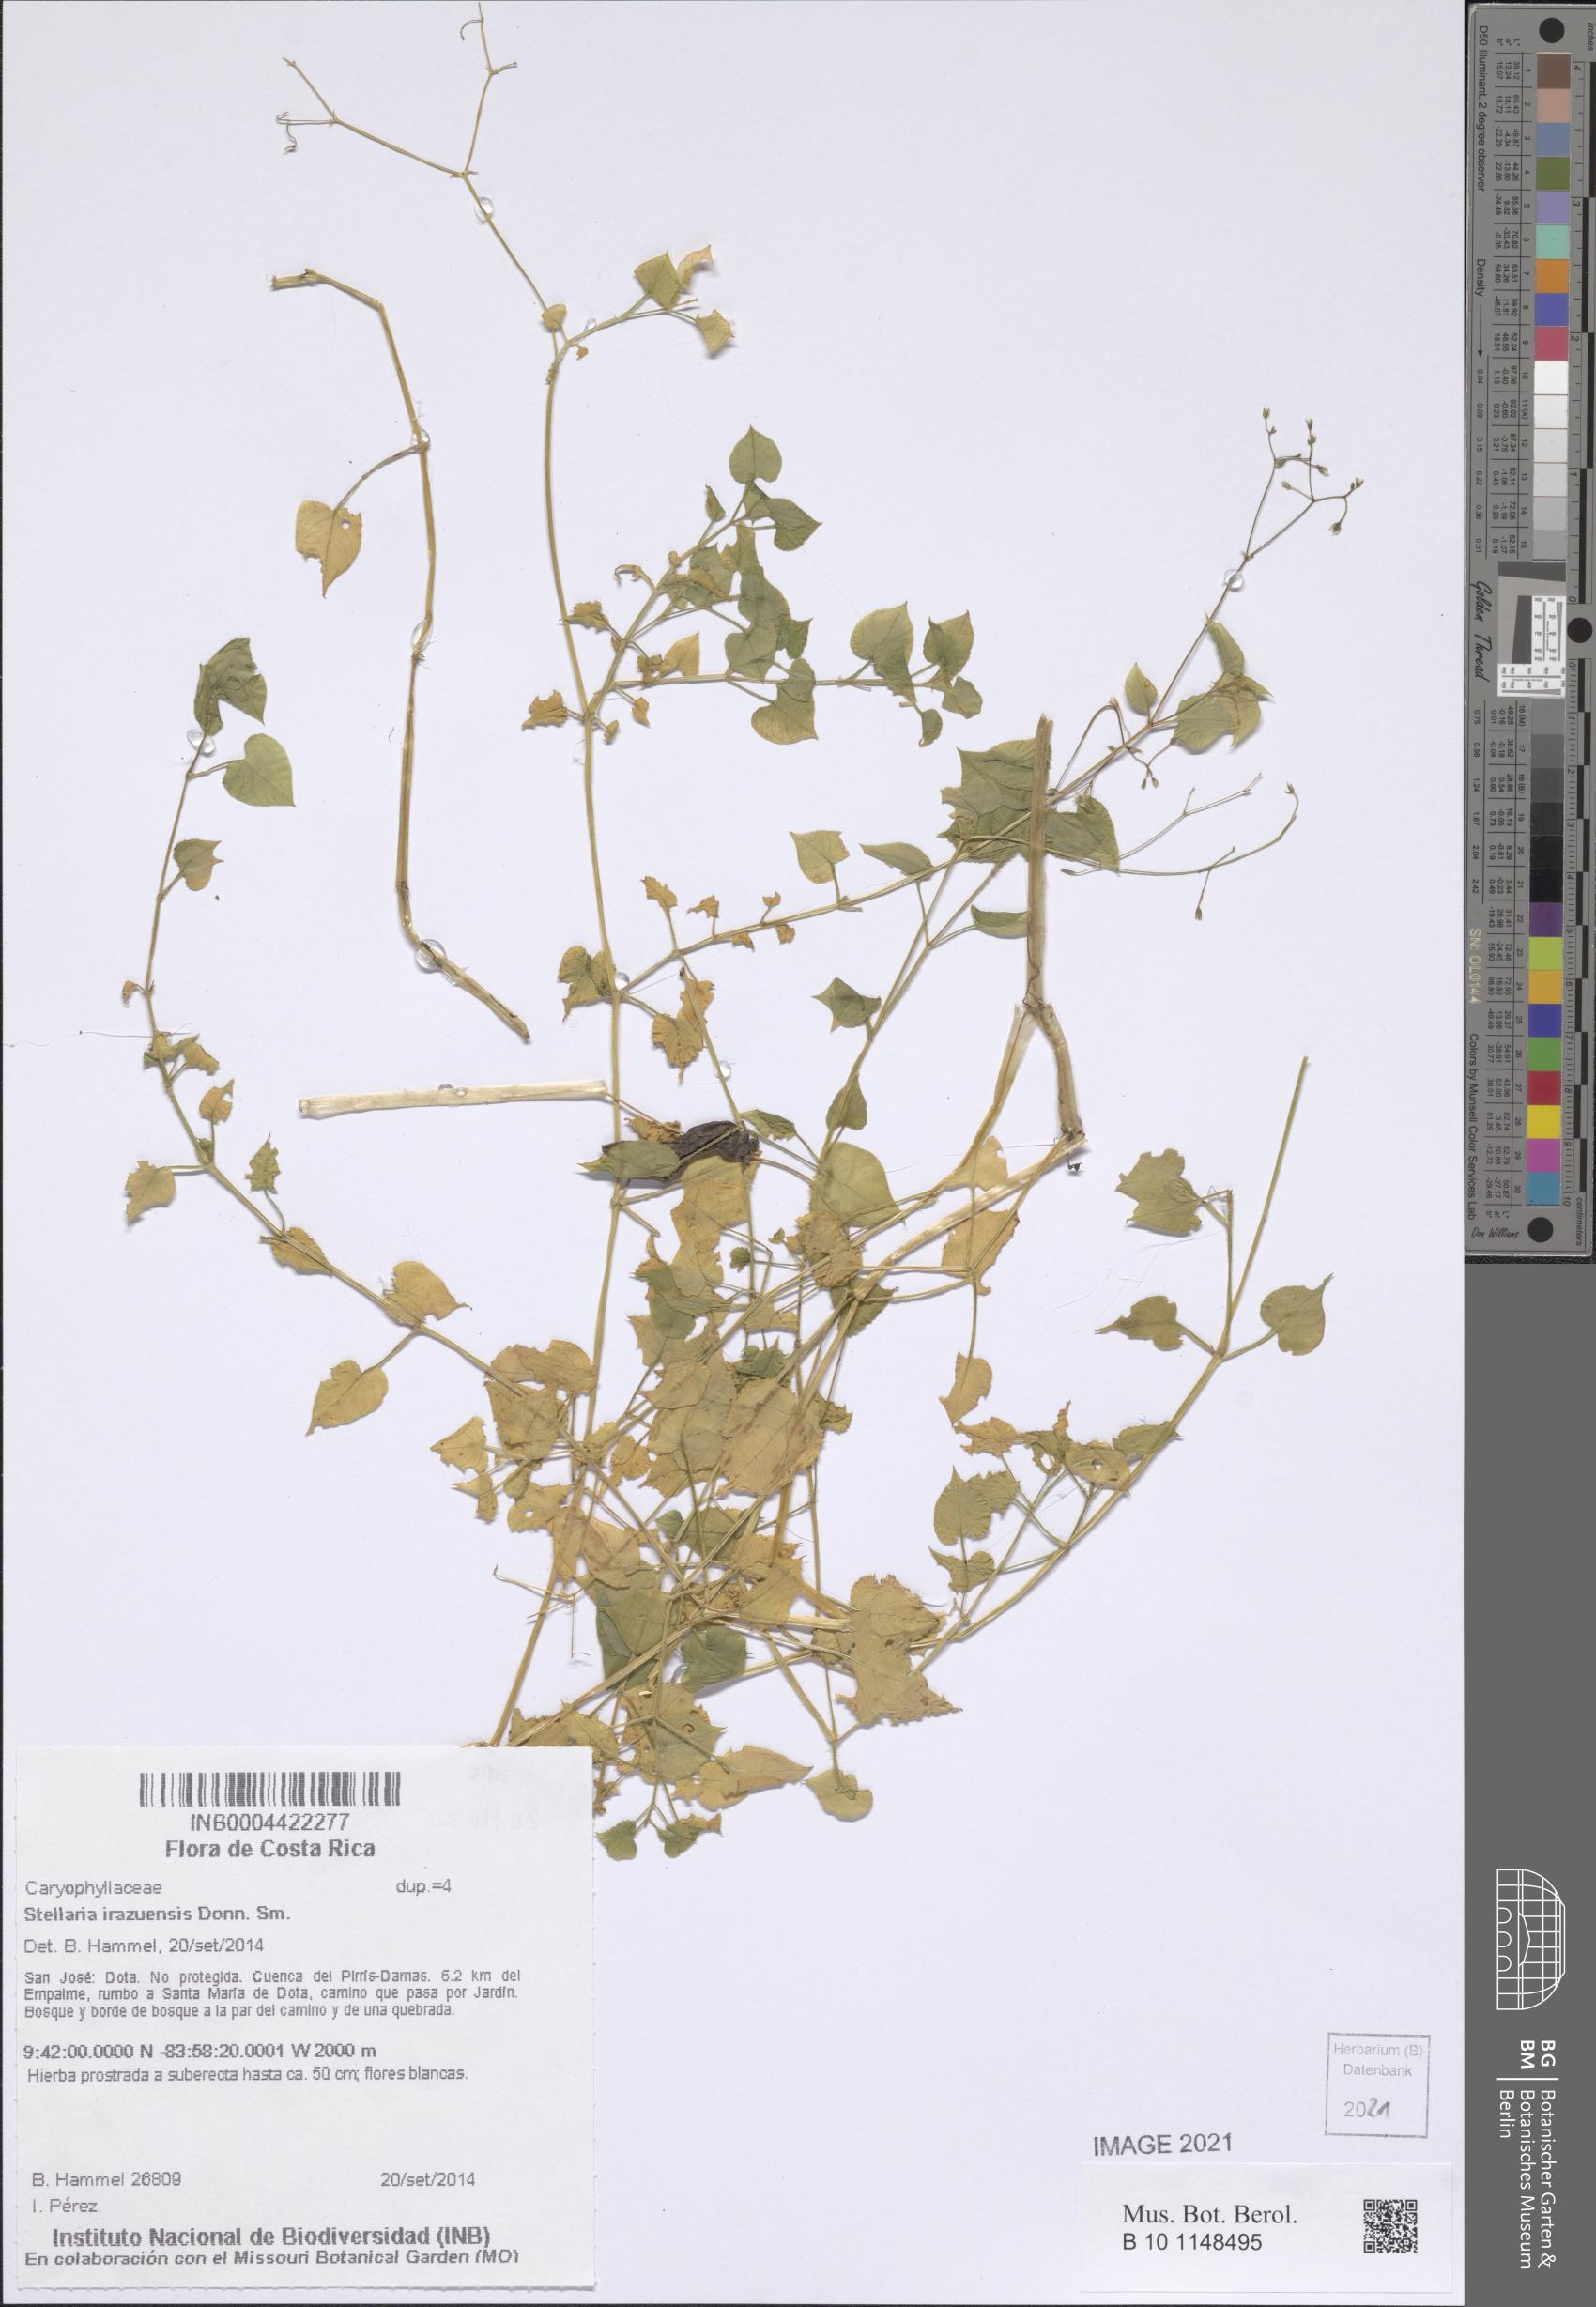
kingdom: Plantae
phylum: Tracheophyta
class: Magnoliopsida
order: Caryophyllales
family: Caryophyllaceae
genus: Stellaria
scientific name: Stellaria irazuensis
